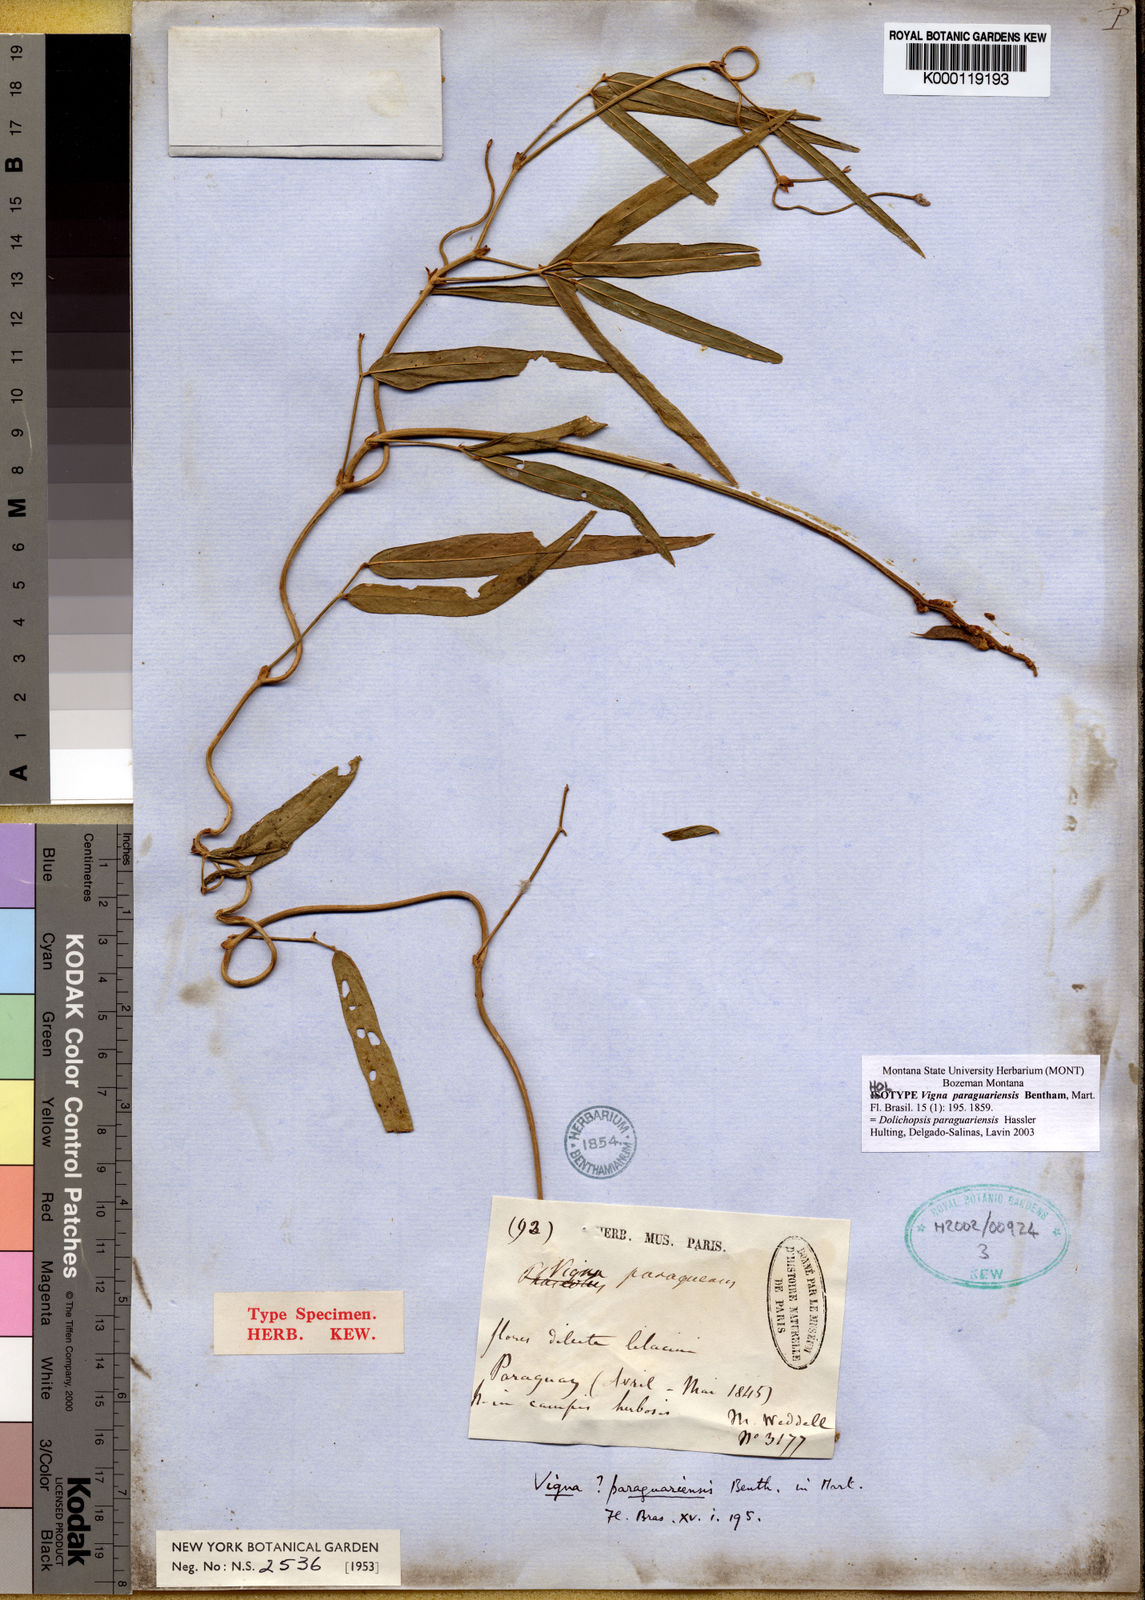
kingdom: Plantae
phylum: Tracheophyta
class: Magnoliopsida
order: Fabales
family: Fabaceae
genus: Dolichopsis
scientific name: Dolichopsis paraguariensis
